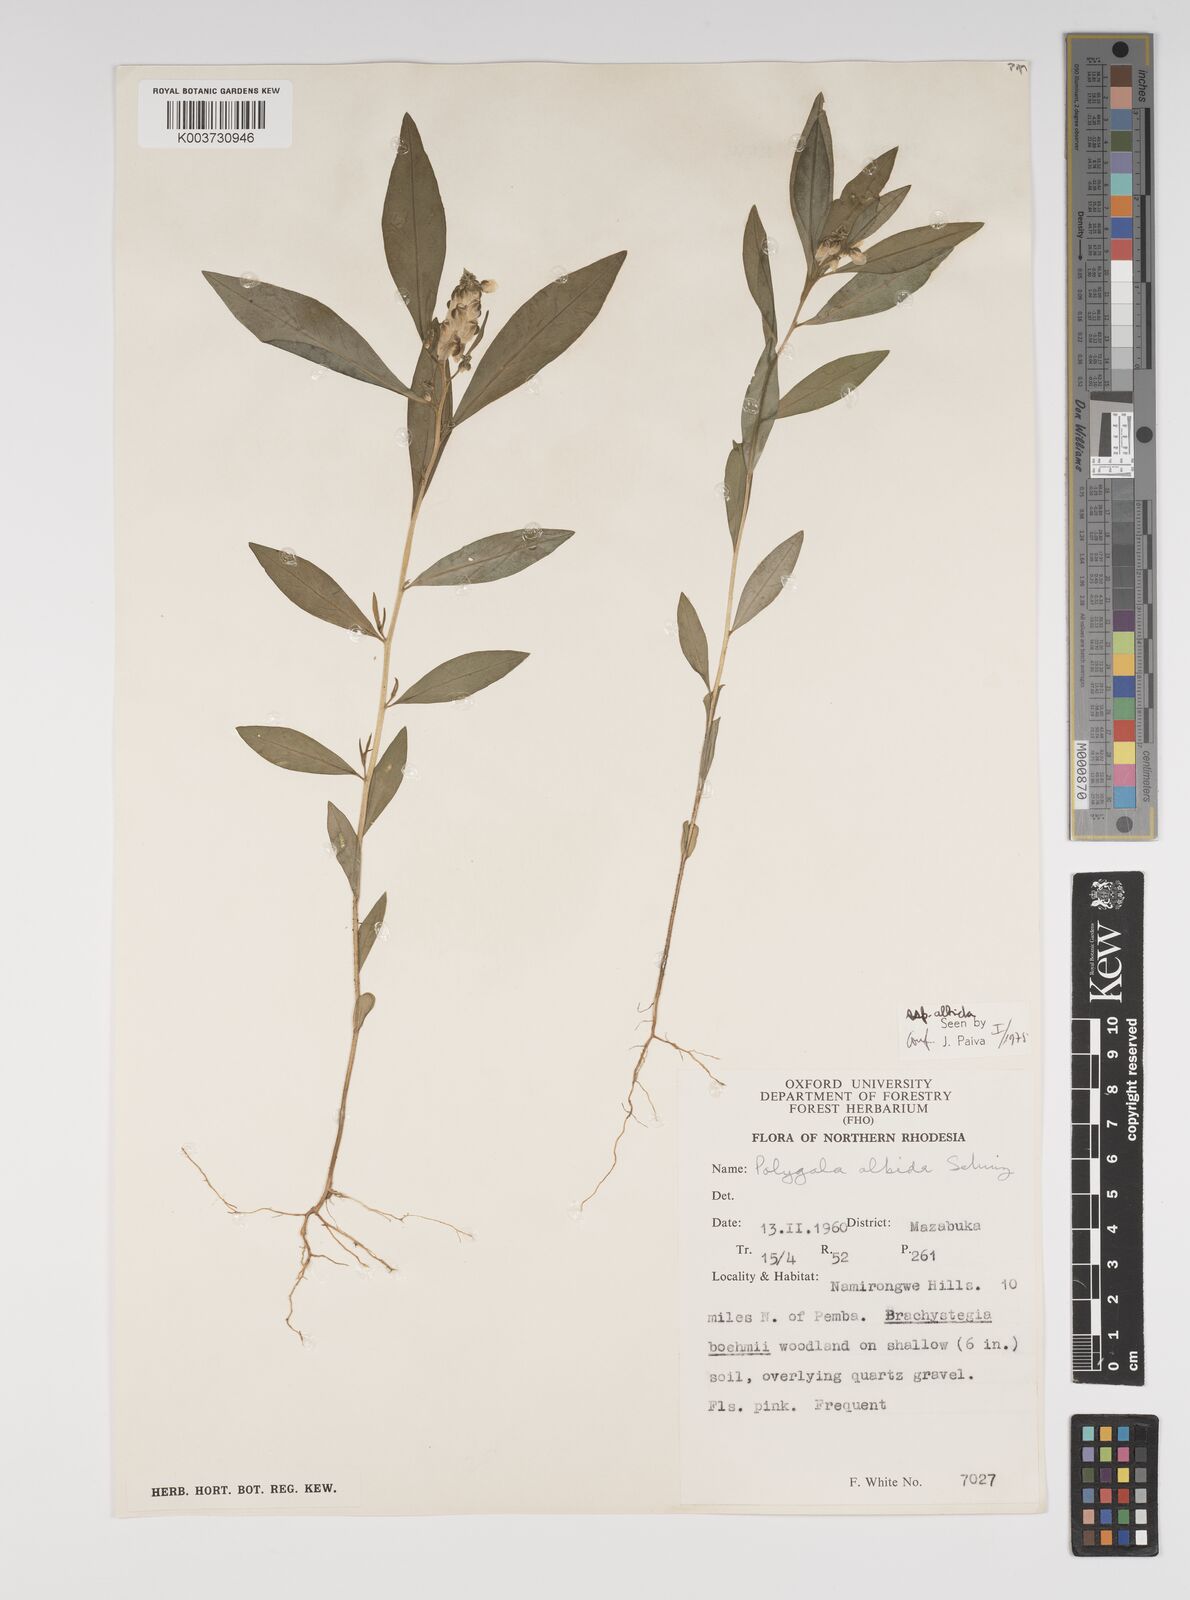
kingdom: Plantae
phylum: Tracheophyta
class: Magnoliopsida
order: Fabales
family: Polygalaceae
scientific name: Polygalaceae
